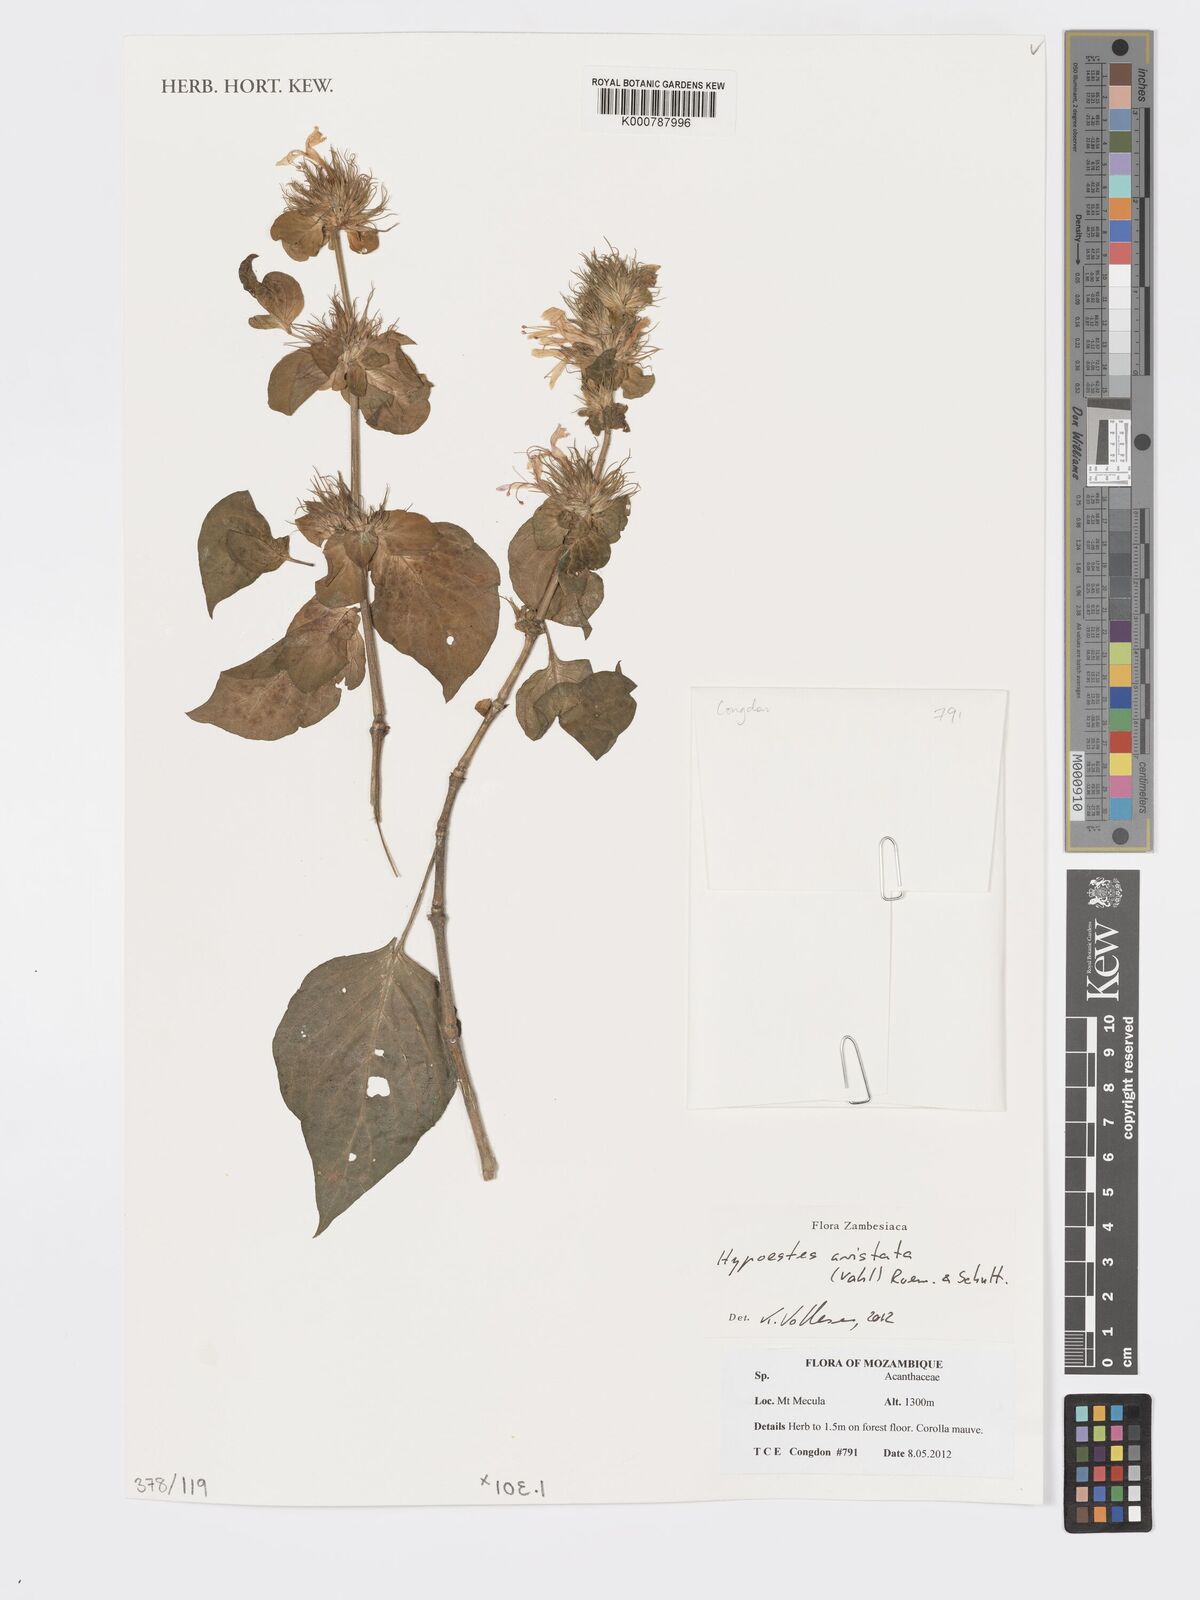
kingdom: Plantae
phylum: Tracheophyta
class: Magnoliopsida
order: Lamiales
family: Acanthaceae
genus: Hypoestes
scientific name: Hypoestes aristata
